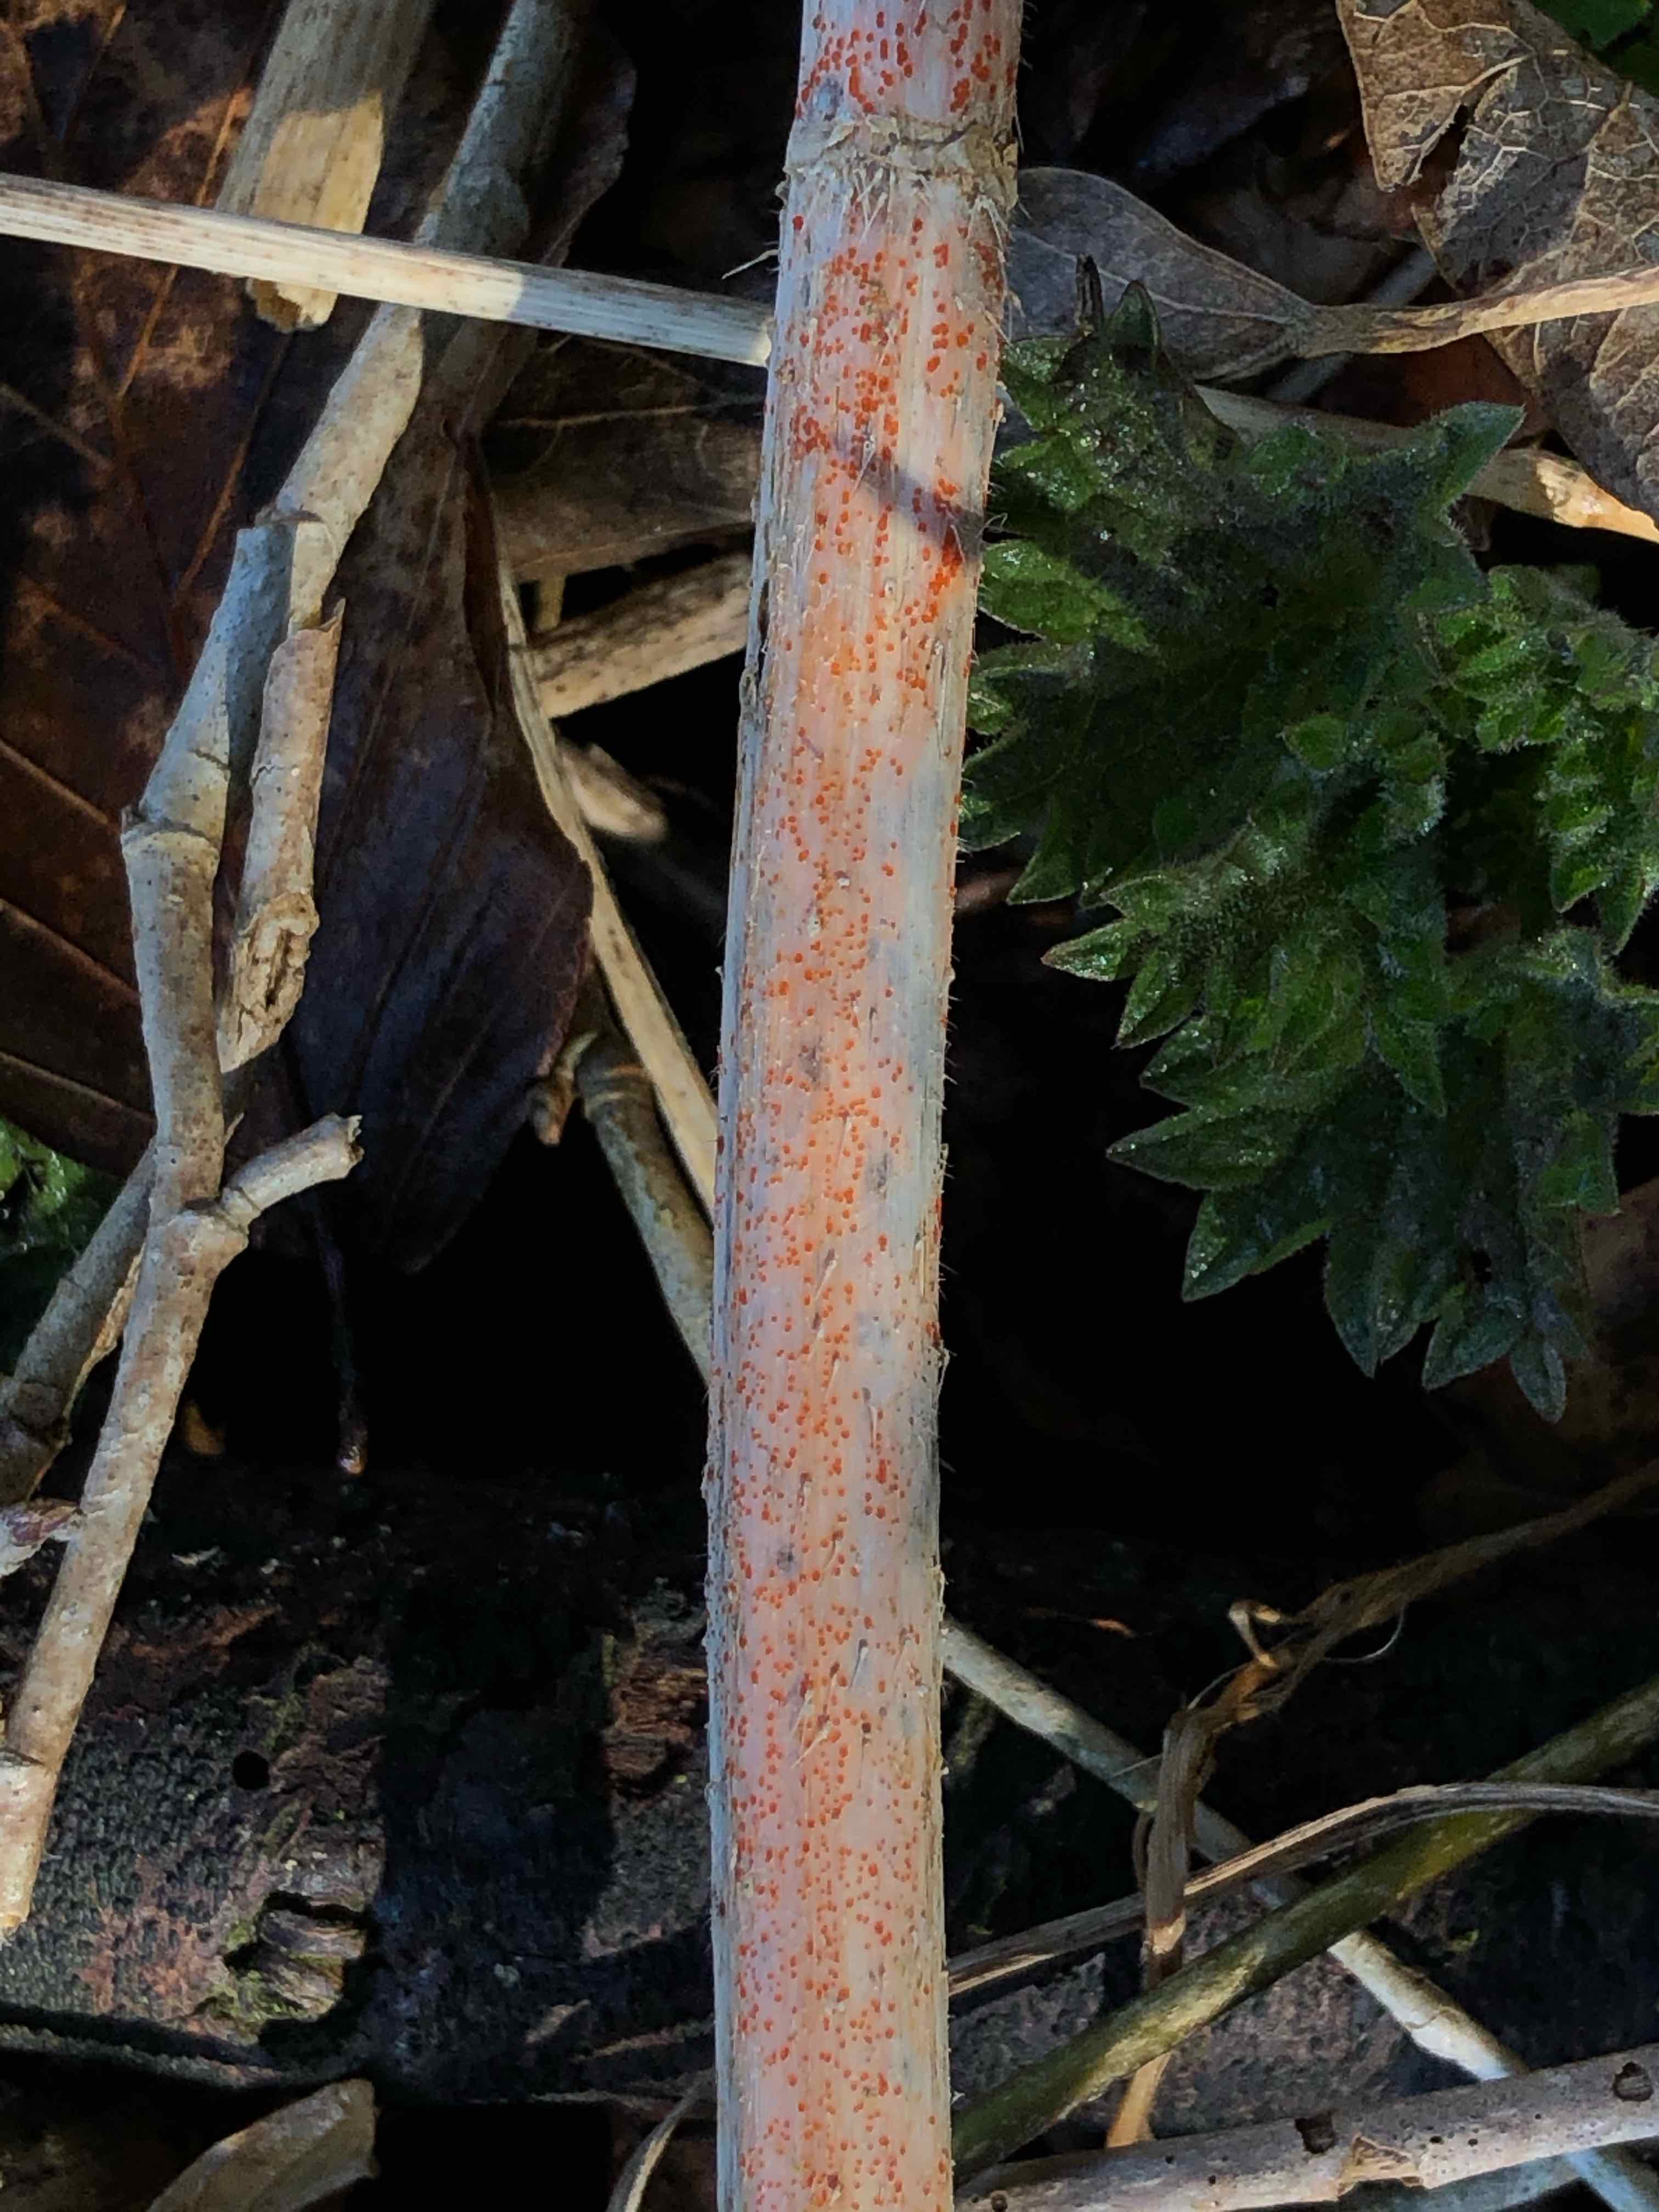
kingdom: Fungi
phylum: Ascomycota
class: Leotiomycetes
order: Helotiales
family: Calloriaceae
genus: Calloria
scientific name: Calloria urticae
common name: nælde-orangeskive
